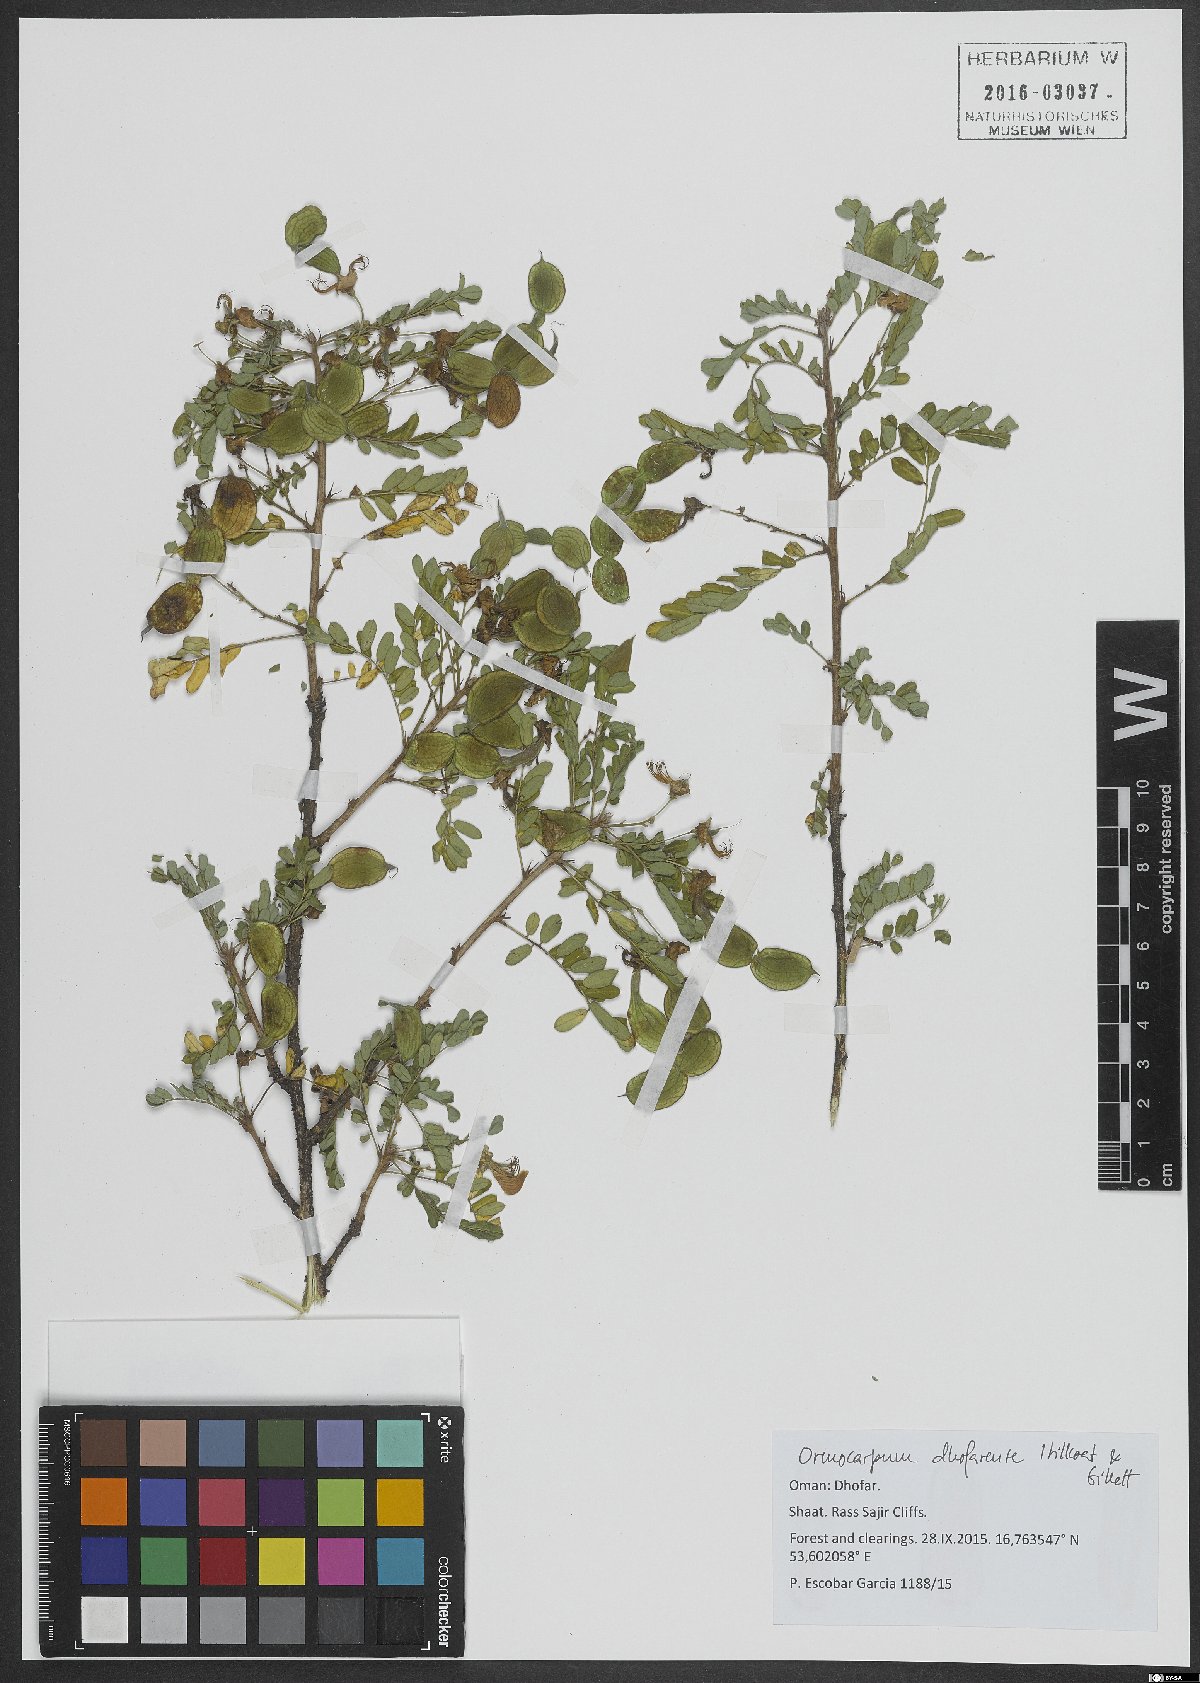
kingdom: Plantae
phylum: Tracheophyta
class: Magnoliopsida
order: Fabales
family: Fabaceae
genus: Zygocarpum
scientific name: Zygocarpum dhofarense
